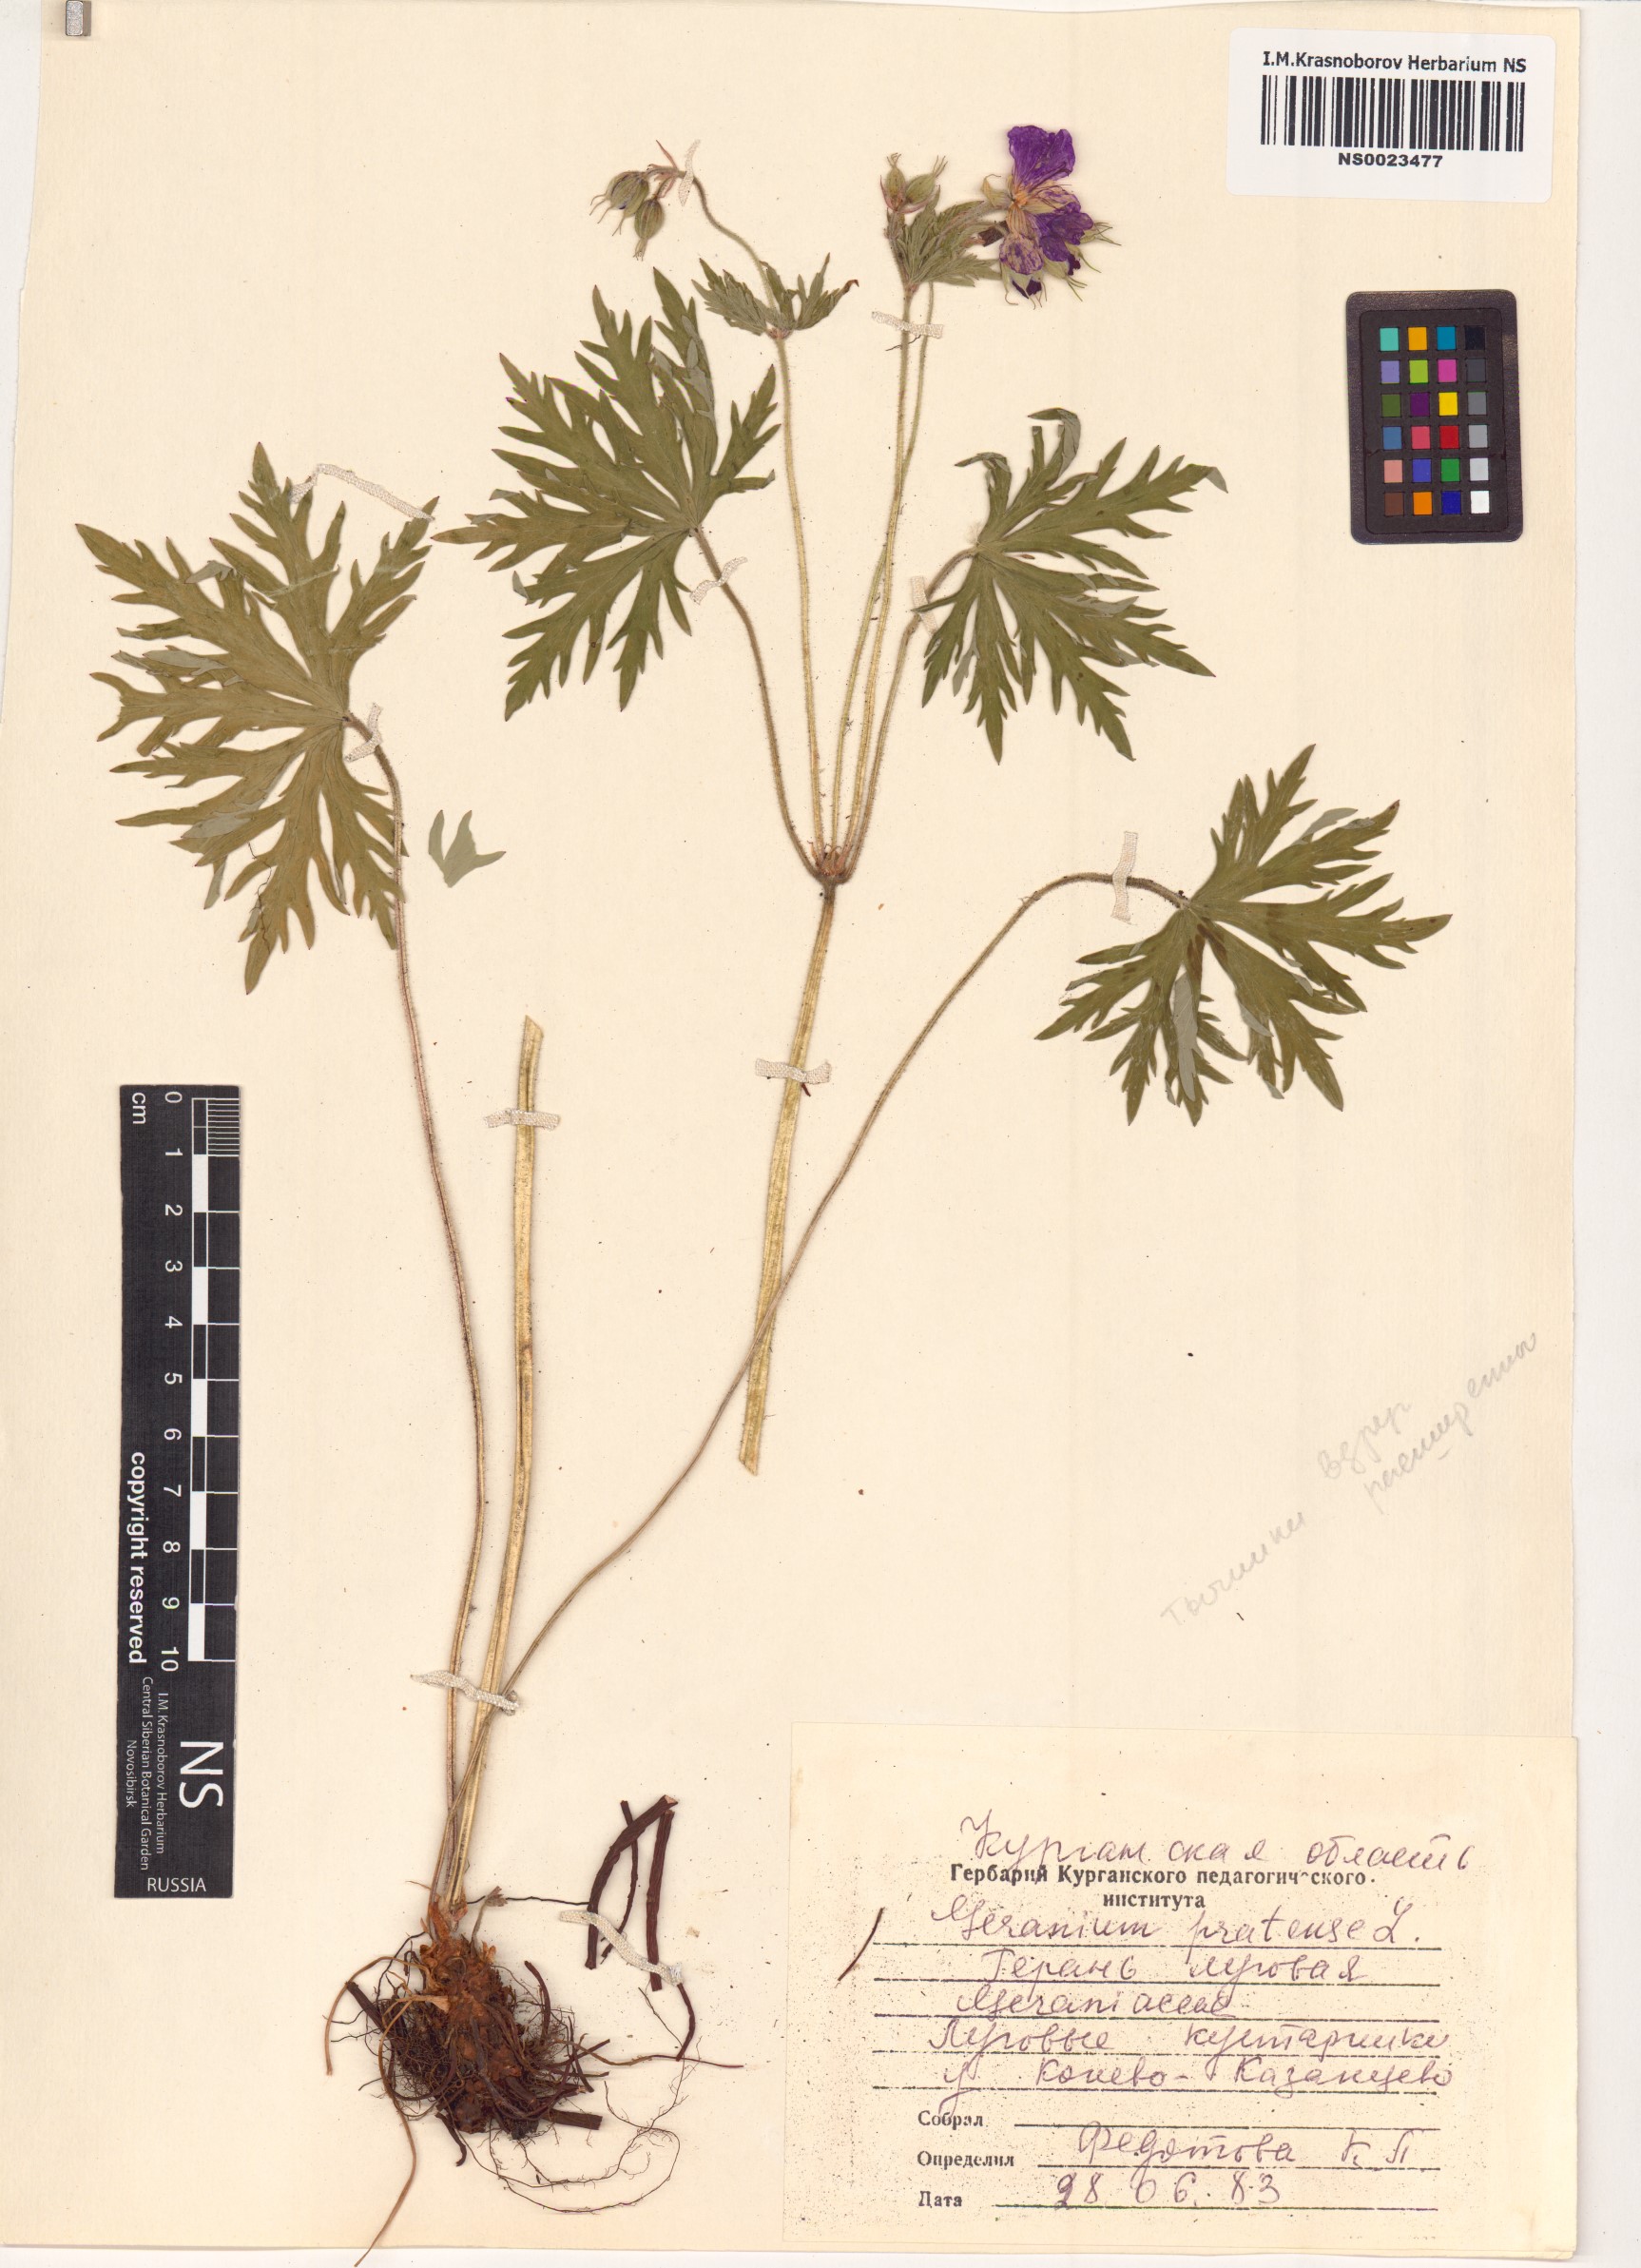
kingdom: Plantae
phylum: Tracheophyta
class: Magnoliopsida
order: Geraniales
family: Geraniaceae
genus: Geranium
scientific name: Geranium pratense
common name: Meadow crane's-bill
